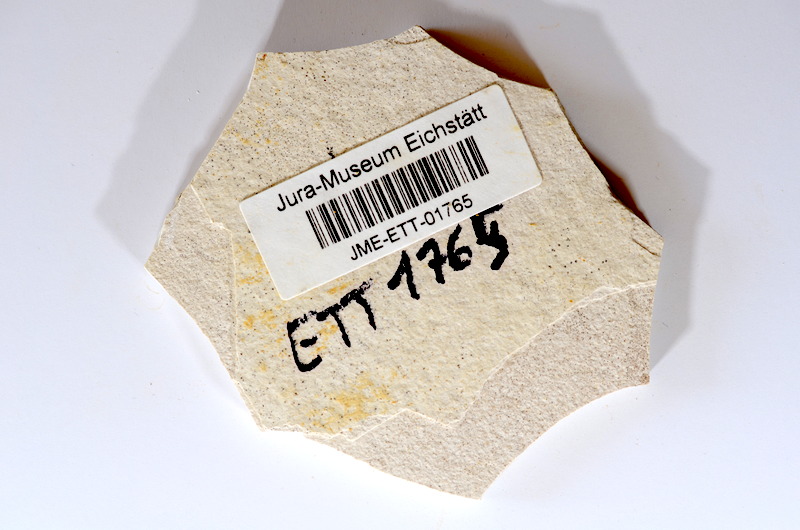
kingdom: Animalia
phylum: Chordata
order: Salmoniformes
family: Orthogonikleithridae
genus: Orthogonikleithrus
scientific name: Orthogonikleithrus hoelli
